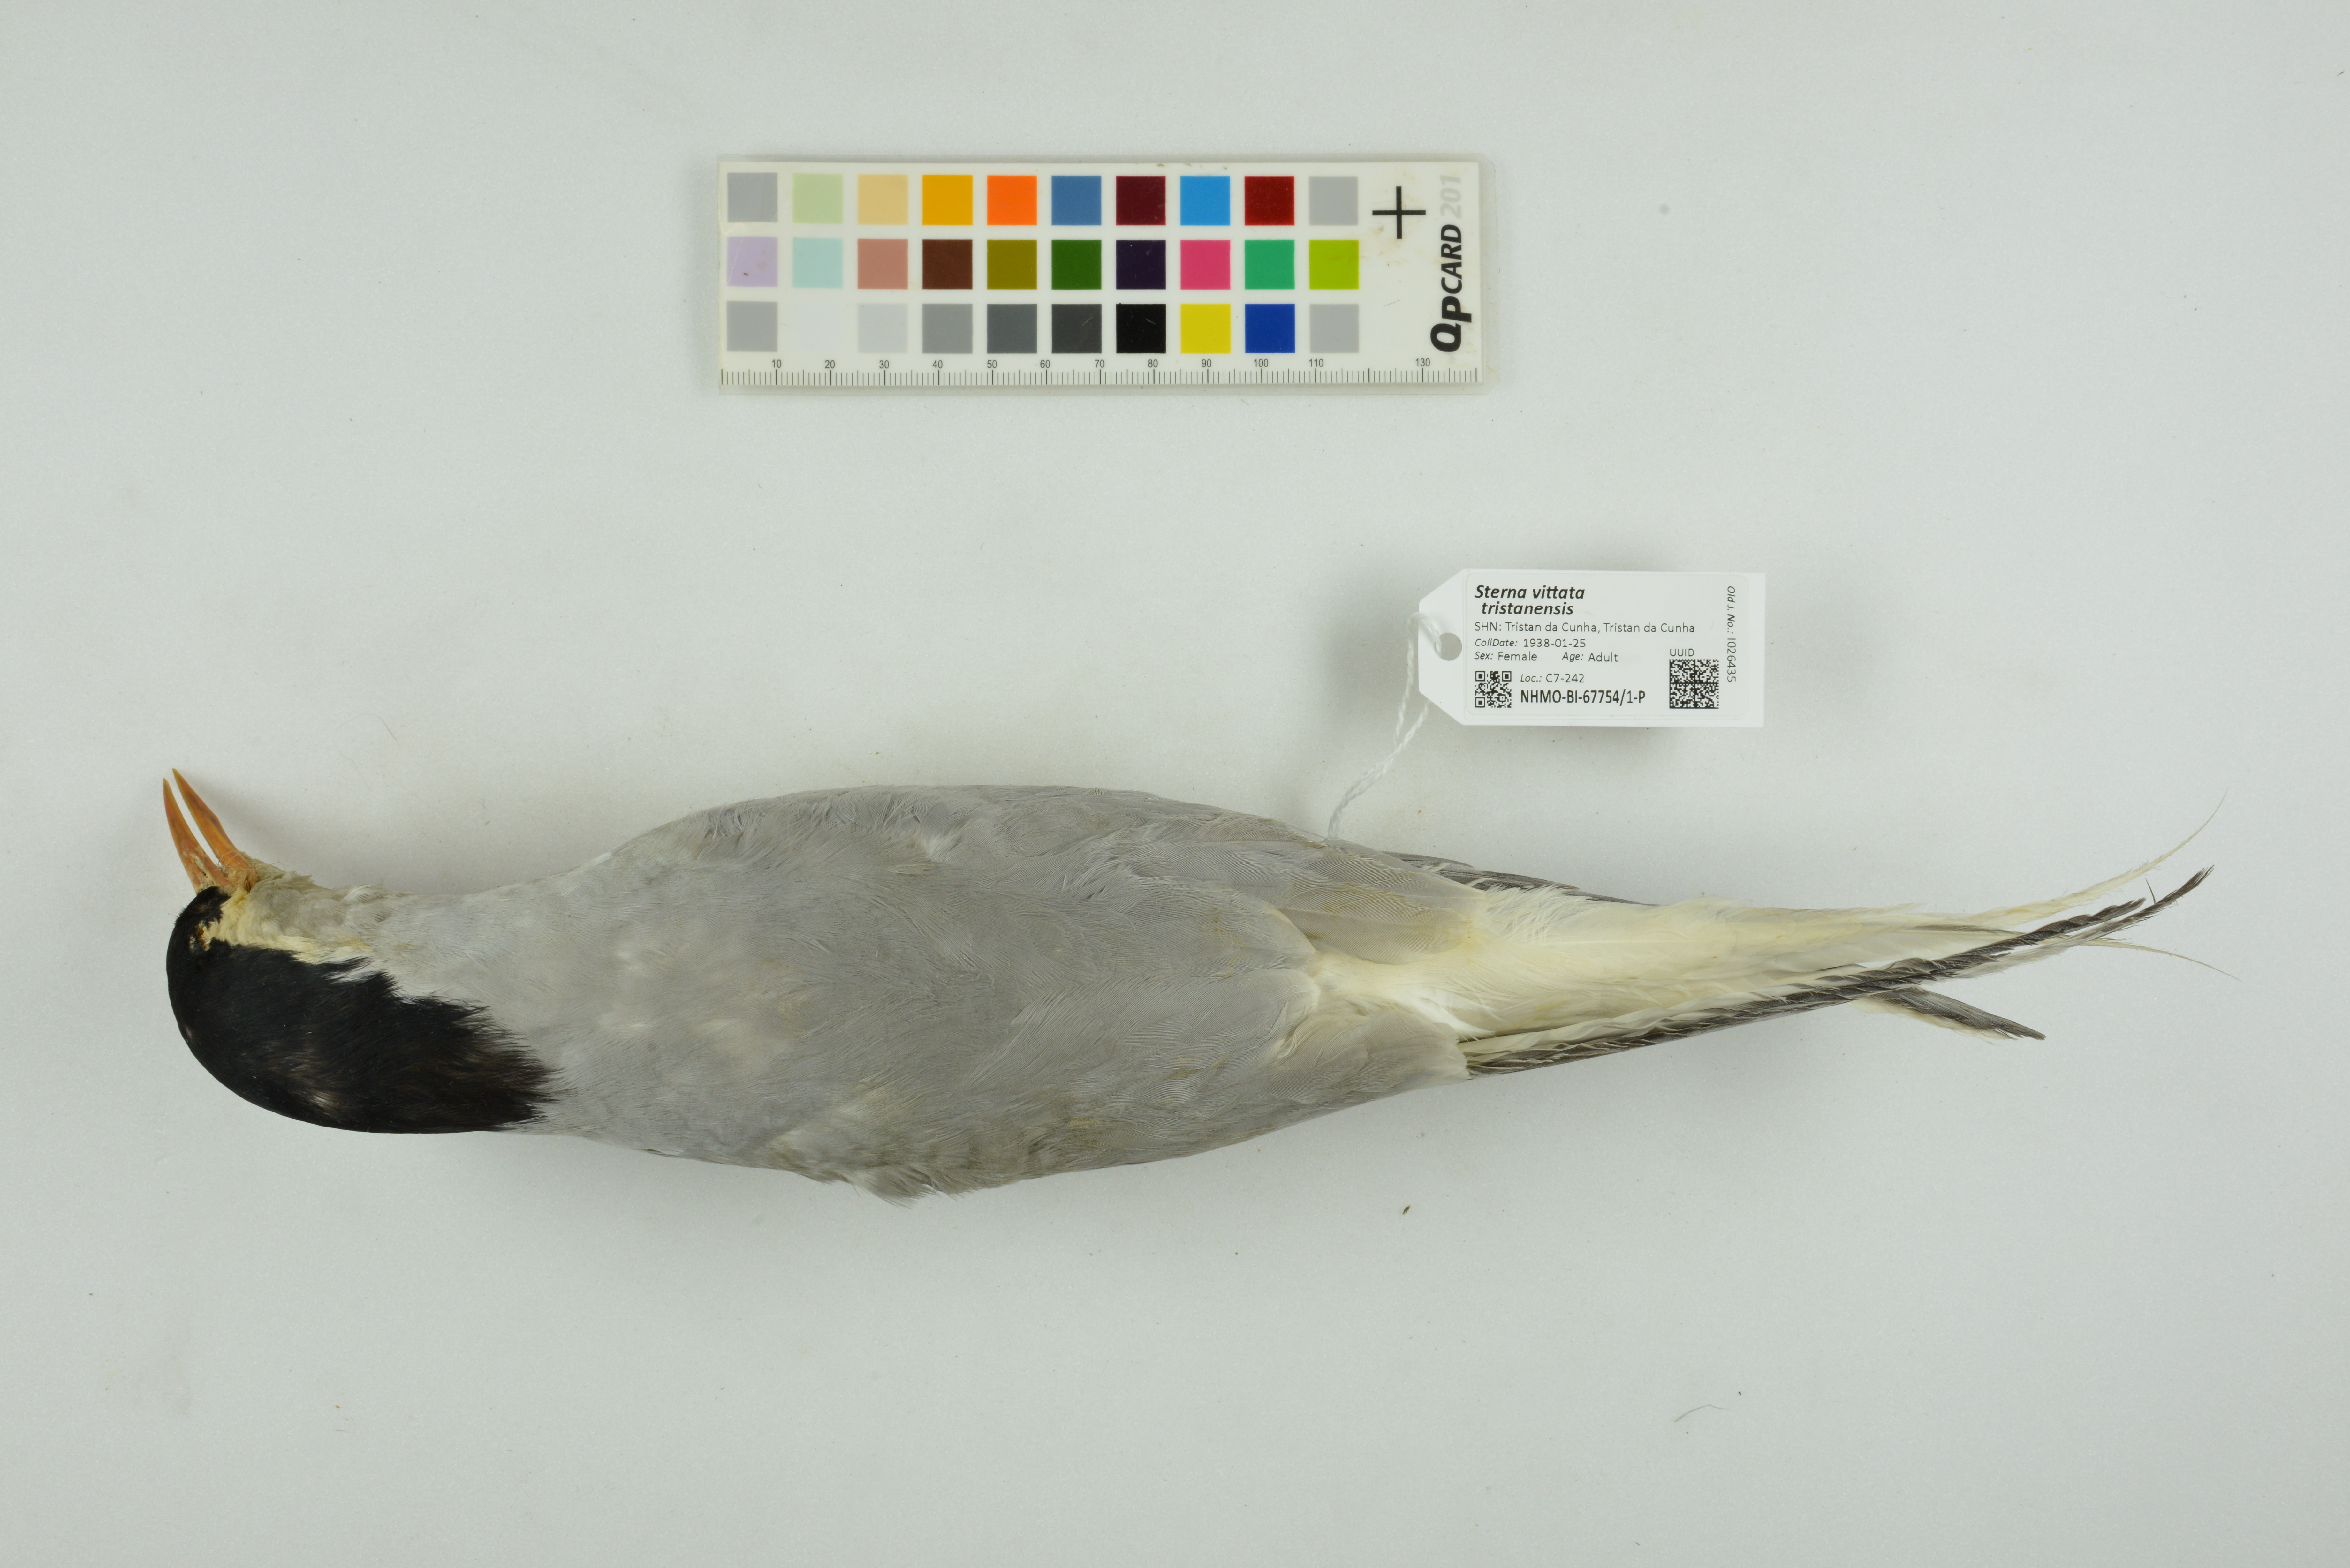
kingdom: Animalia
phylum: Chordata
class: Aves
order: Charadriiformes
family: Laridae
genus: Sterna
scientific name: Sterna vittata
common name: Antarctic tern
